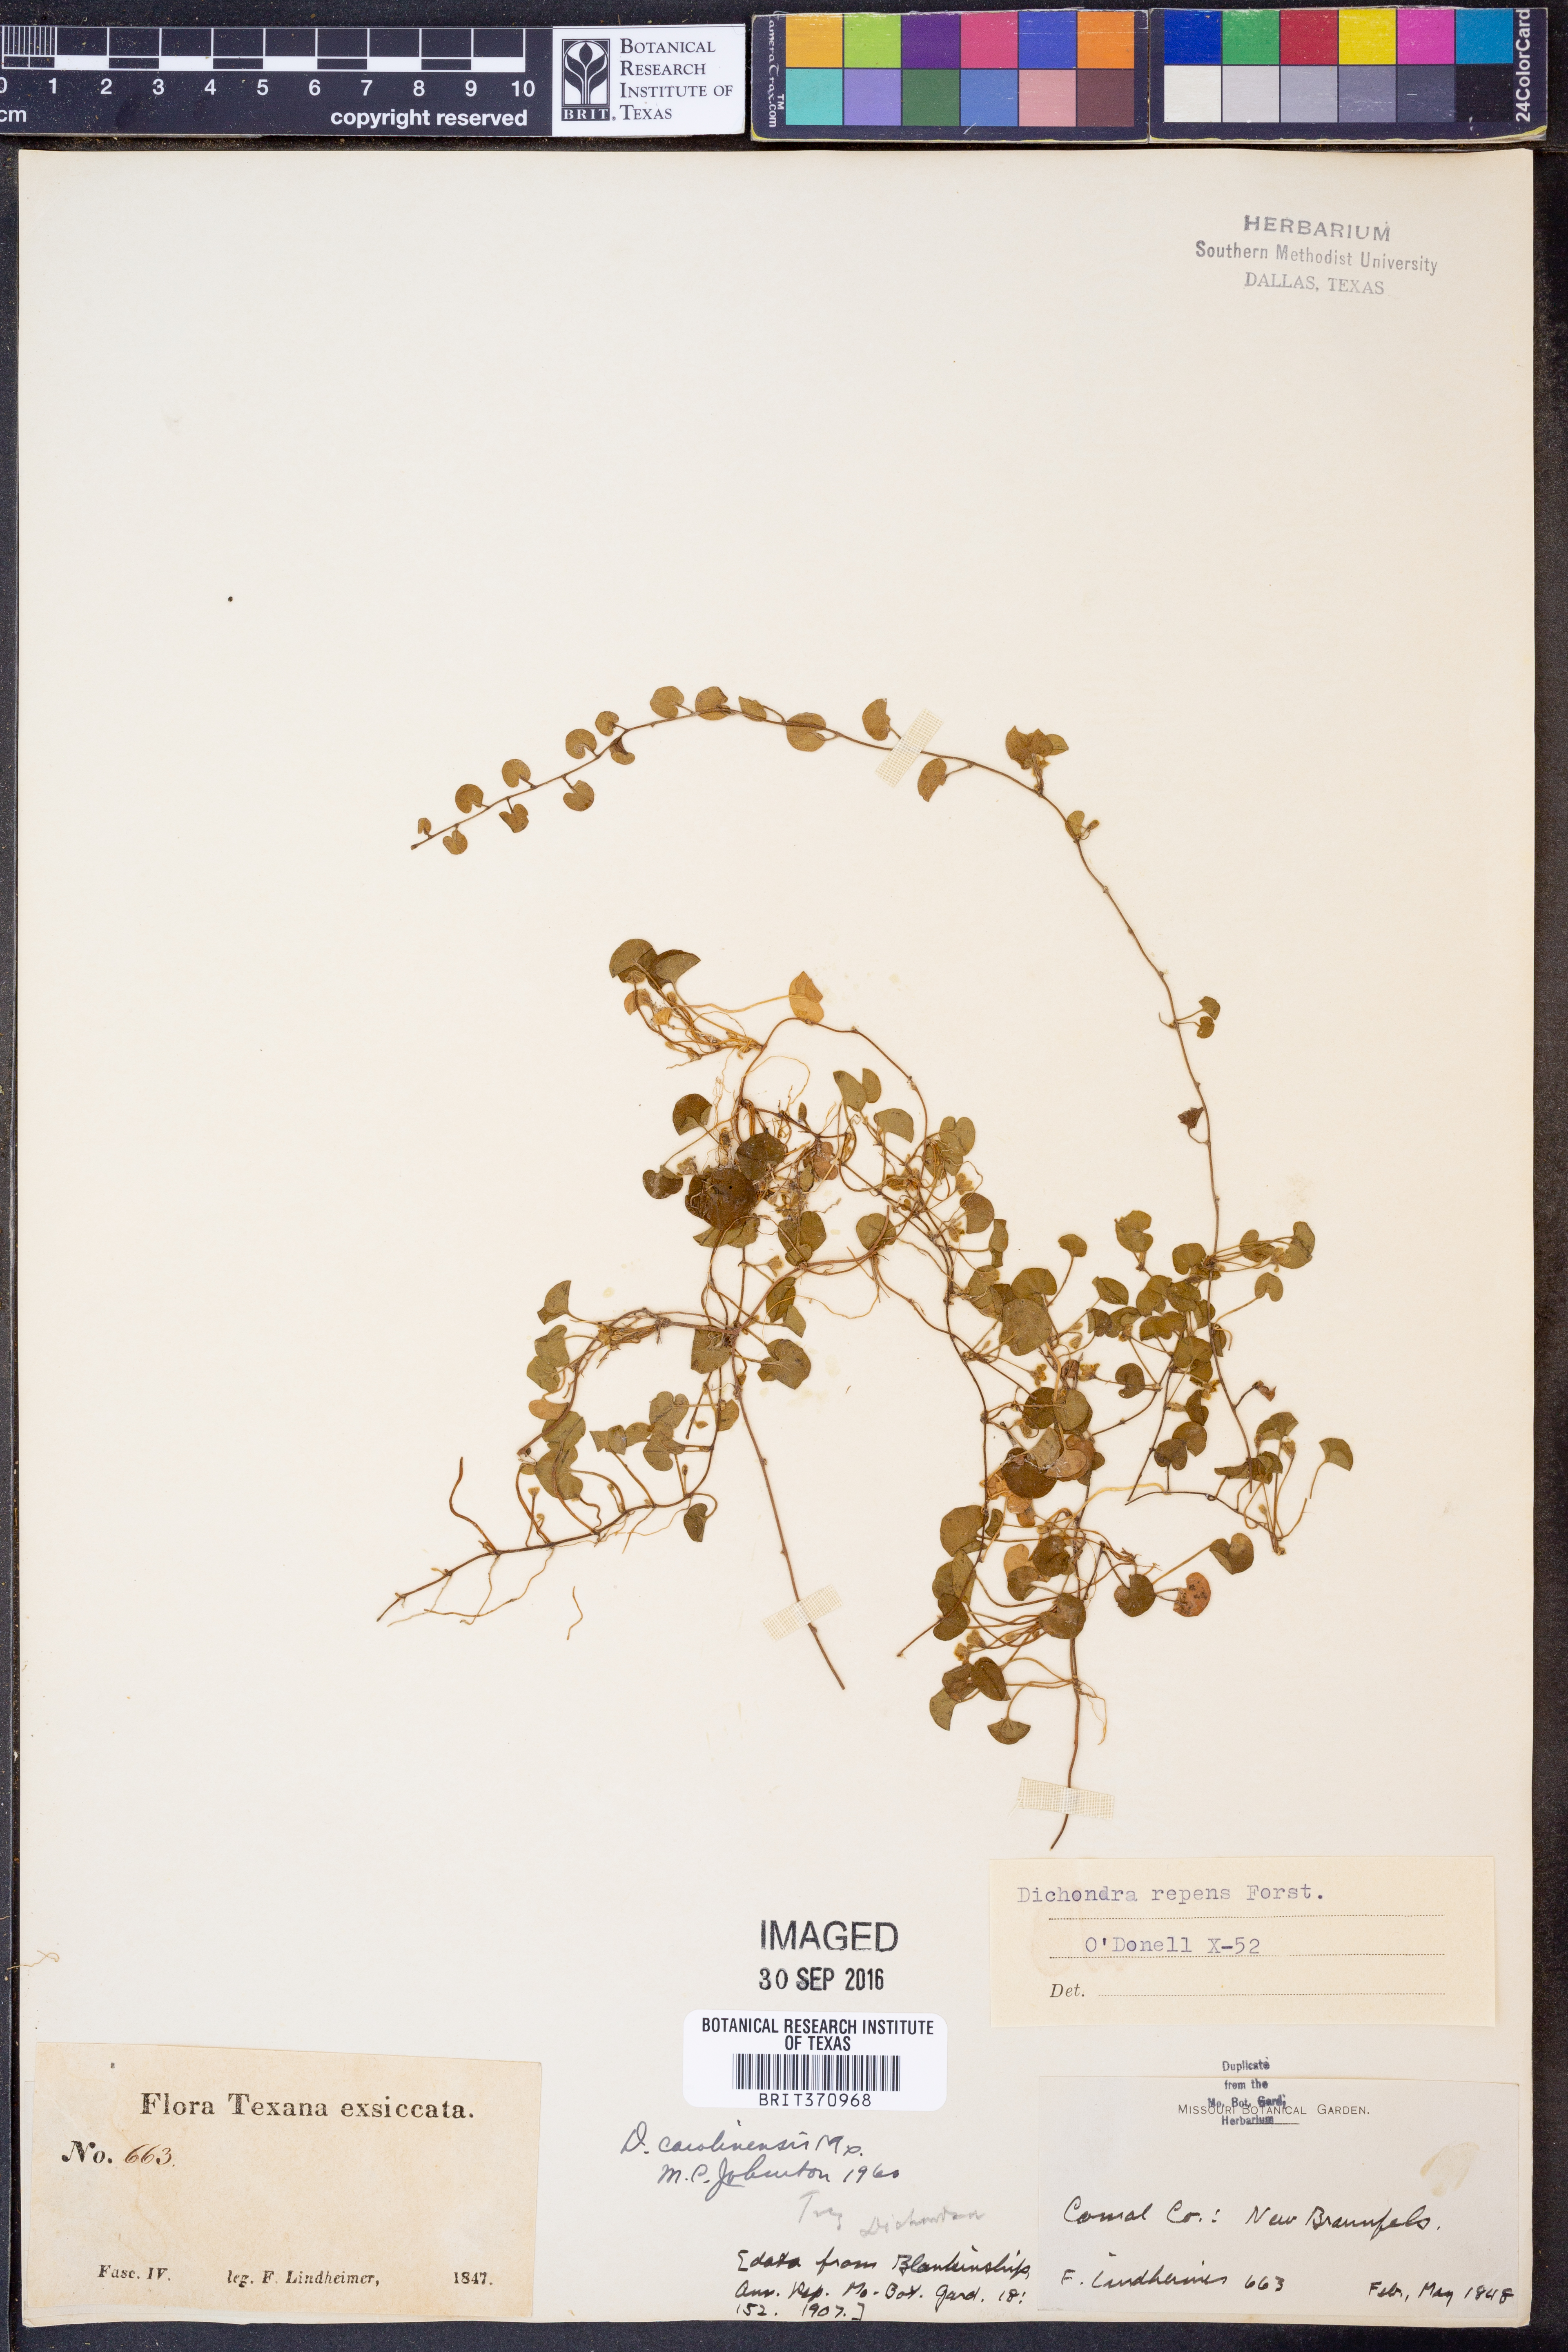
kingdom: Plantae
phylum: Tracheophyta
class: Magnoliopsida
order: Solanales
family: Convolvulaceae
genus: Dichondra
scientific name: Dichondra carolinensis
